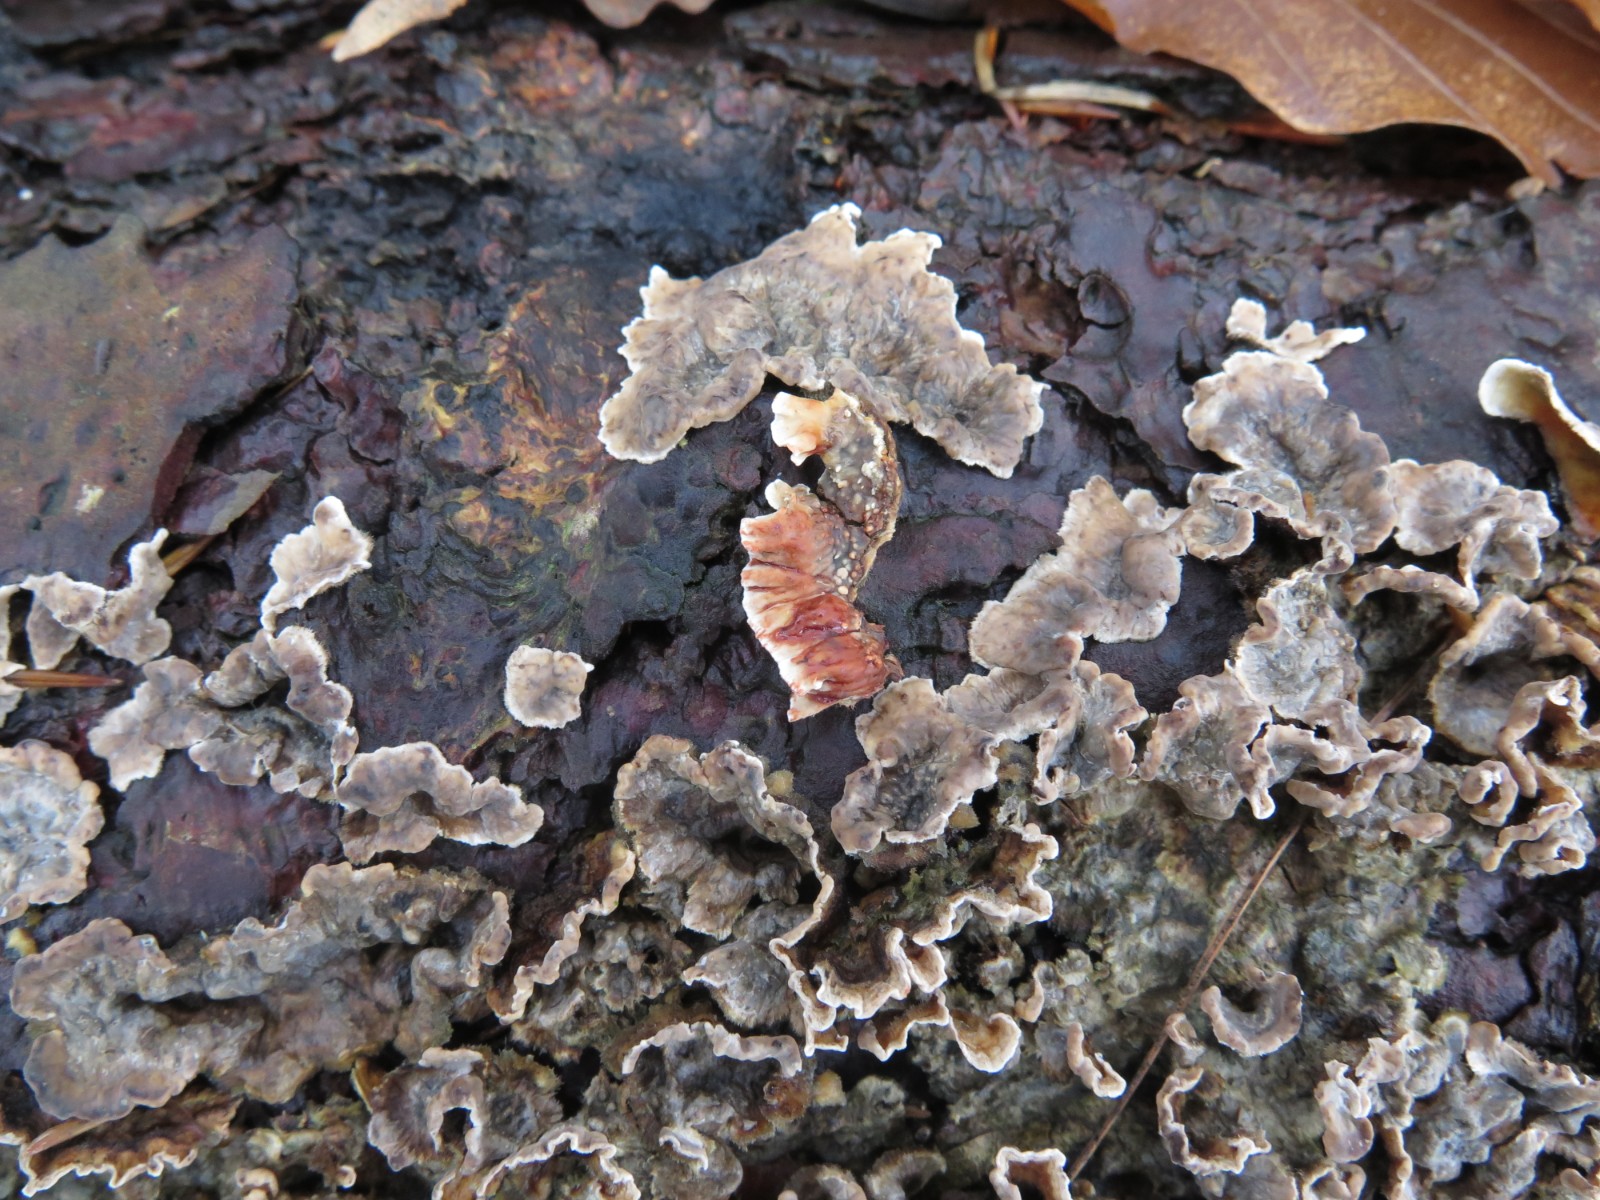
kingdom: Fungi
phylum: Basidiomycota
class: Agaricomycetes
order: Russulales
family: Stereaceae
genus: Stereum
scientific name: Stereum sanguinolentum
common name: blødende lædersvamp
